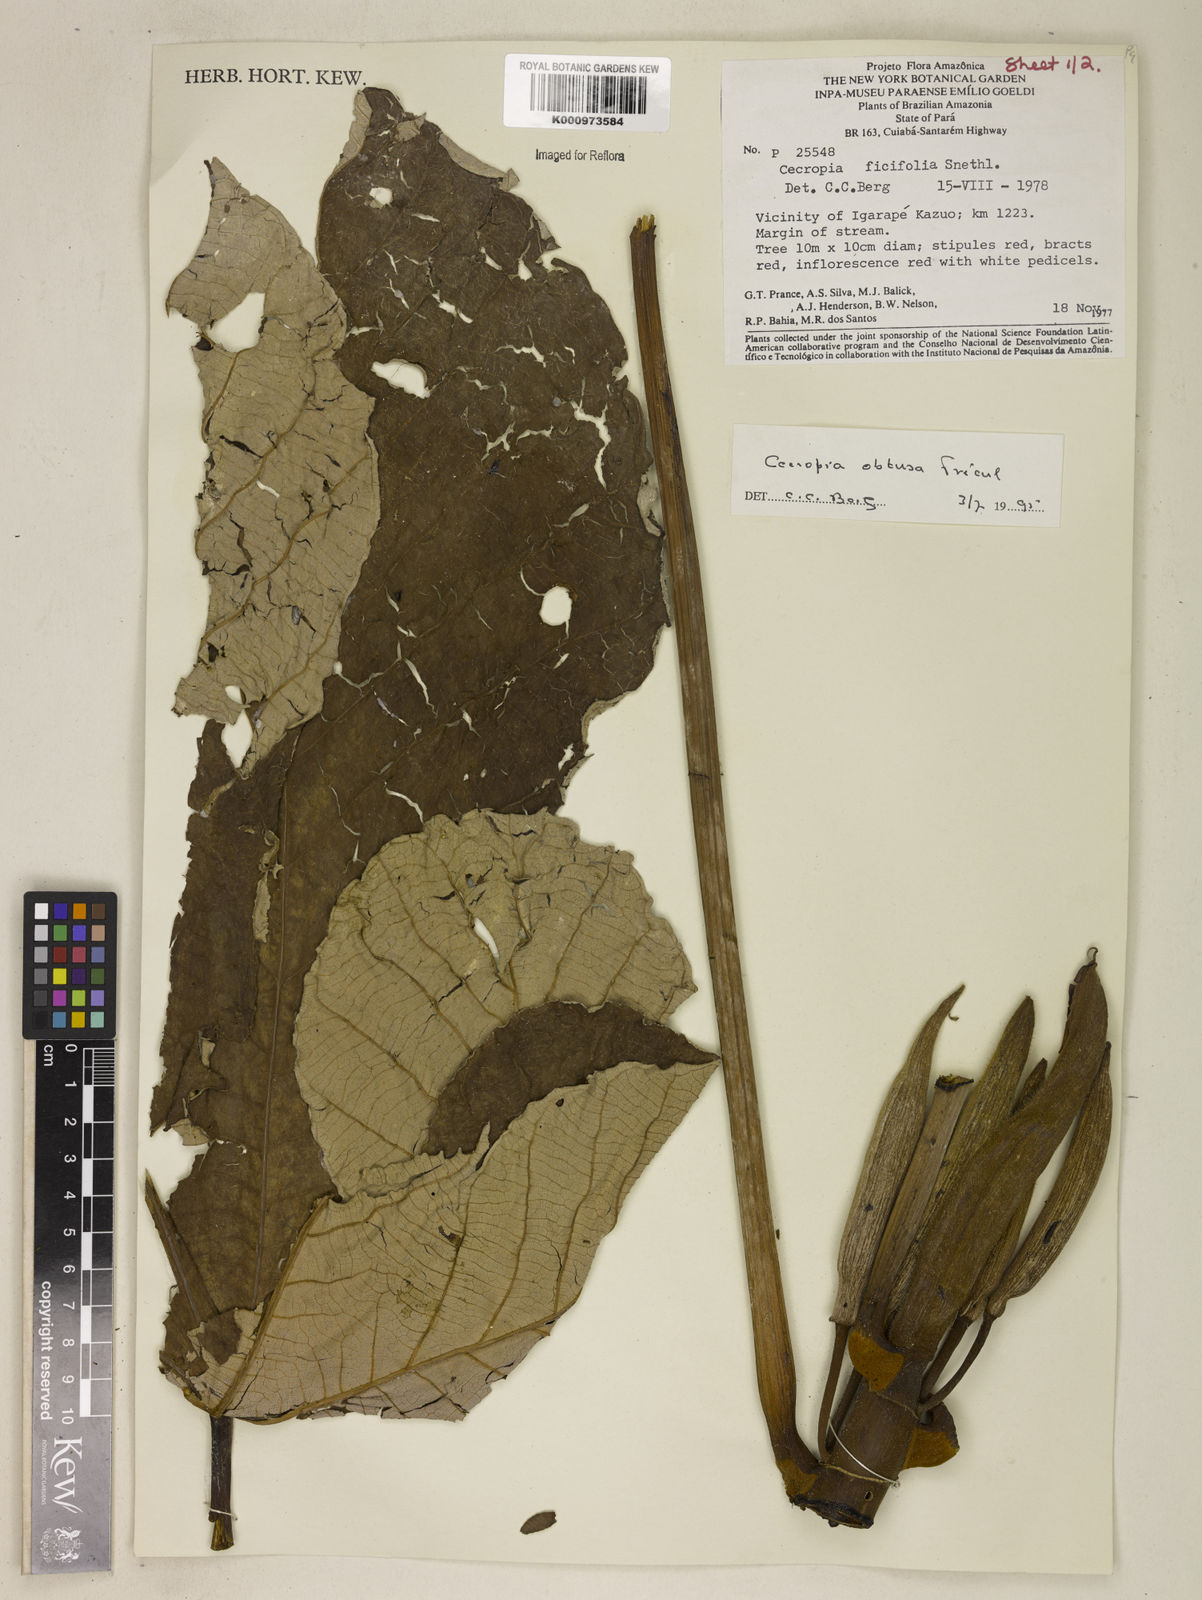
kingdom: Plantae
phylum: Tracheophyta
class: Magnoliopsida
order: Rosales
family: Urticaceae
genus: Cecropia
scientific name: Cecropia
